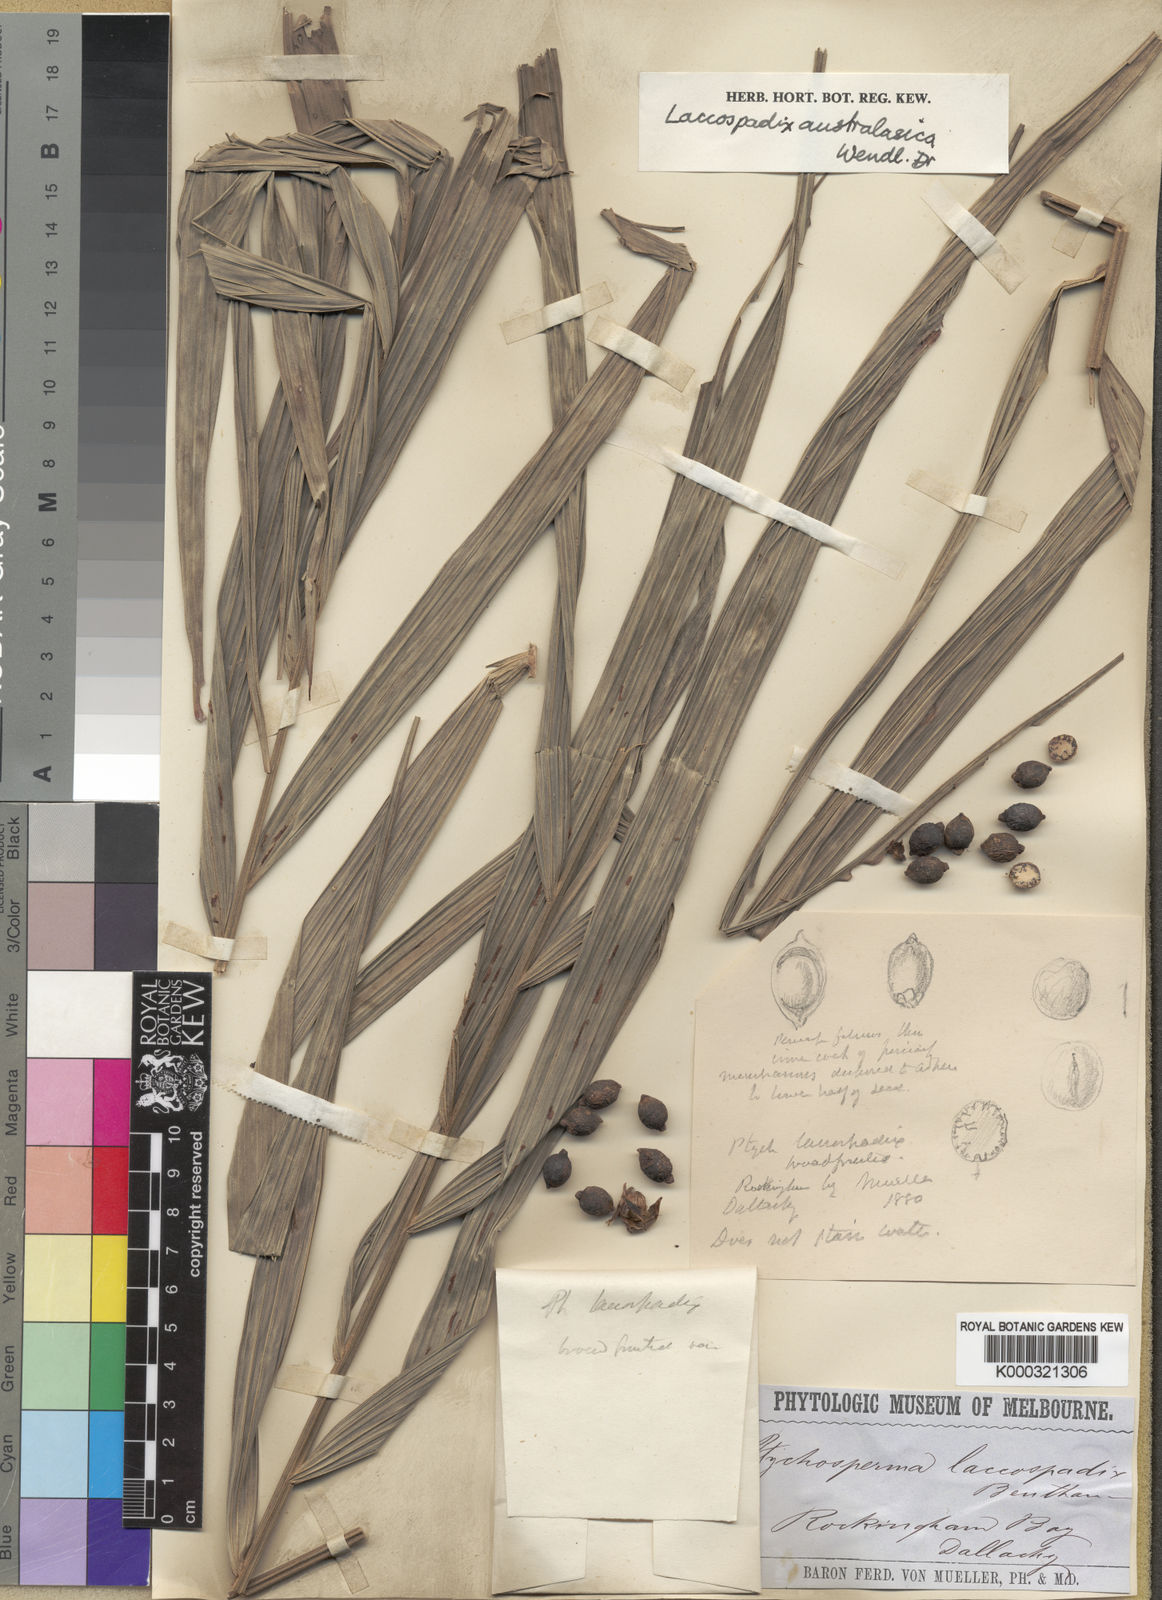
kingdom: Plantae
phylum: Tracheophyta
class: Liliopsida
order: Arecales
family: Arecaceae
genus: Laccospadix
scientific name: Laccospadix australasicus
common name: Mountain mist palm
